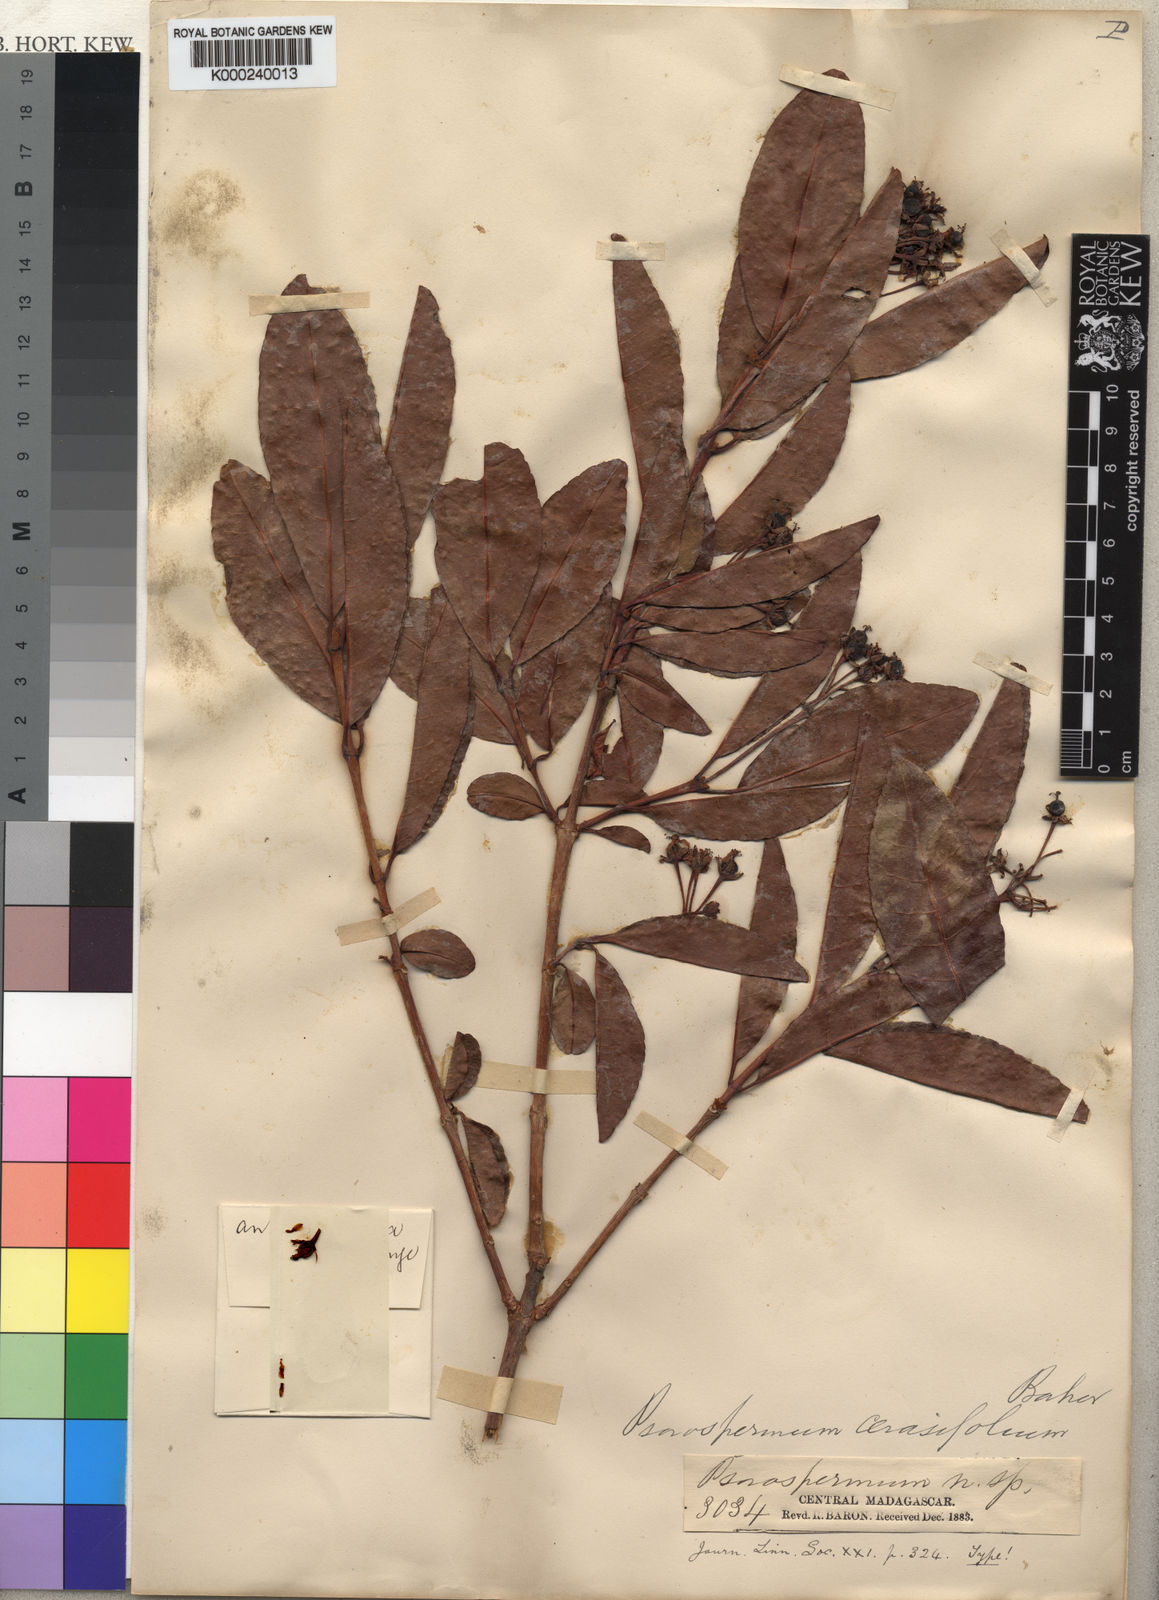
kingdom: Plantae
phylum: Tracheophyta
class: Magnoliopsida
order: Malpighiales
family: Hypericaceae
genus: Psorospermum
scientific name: Psorospermum cerasifolium
